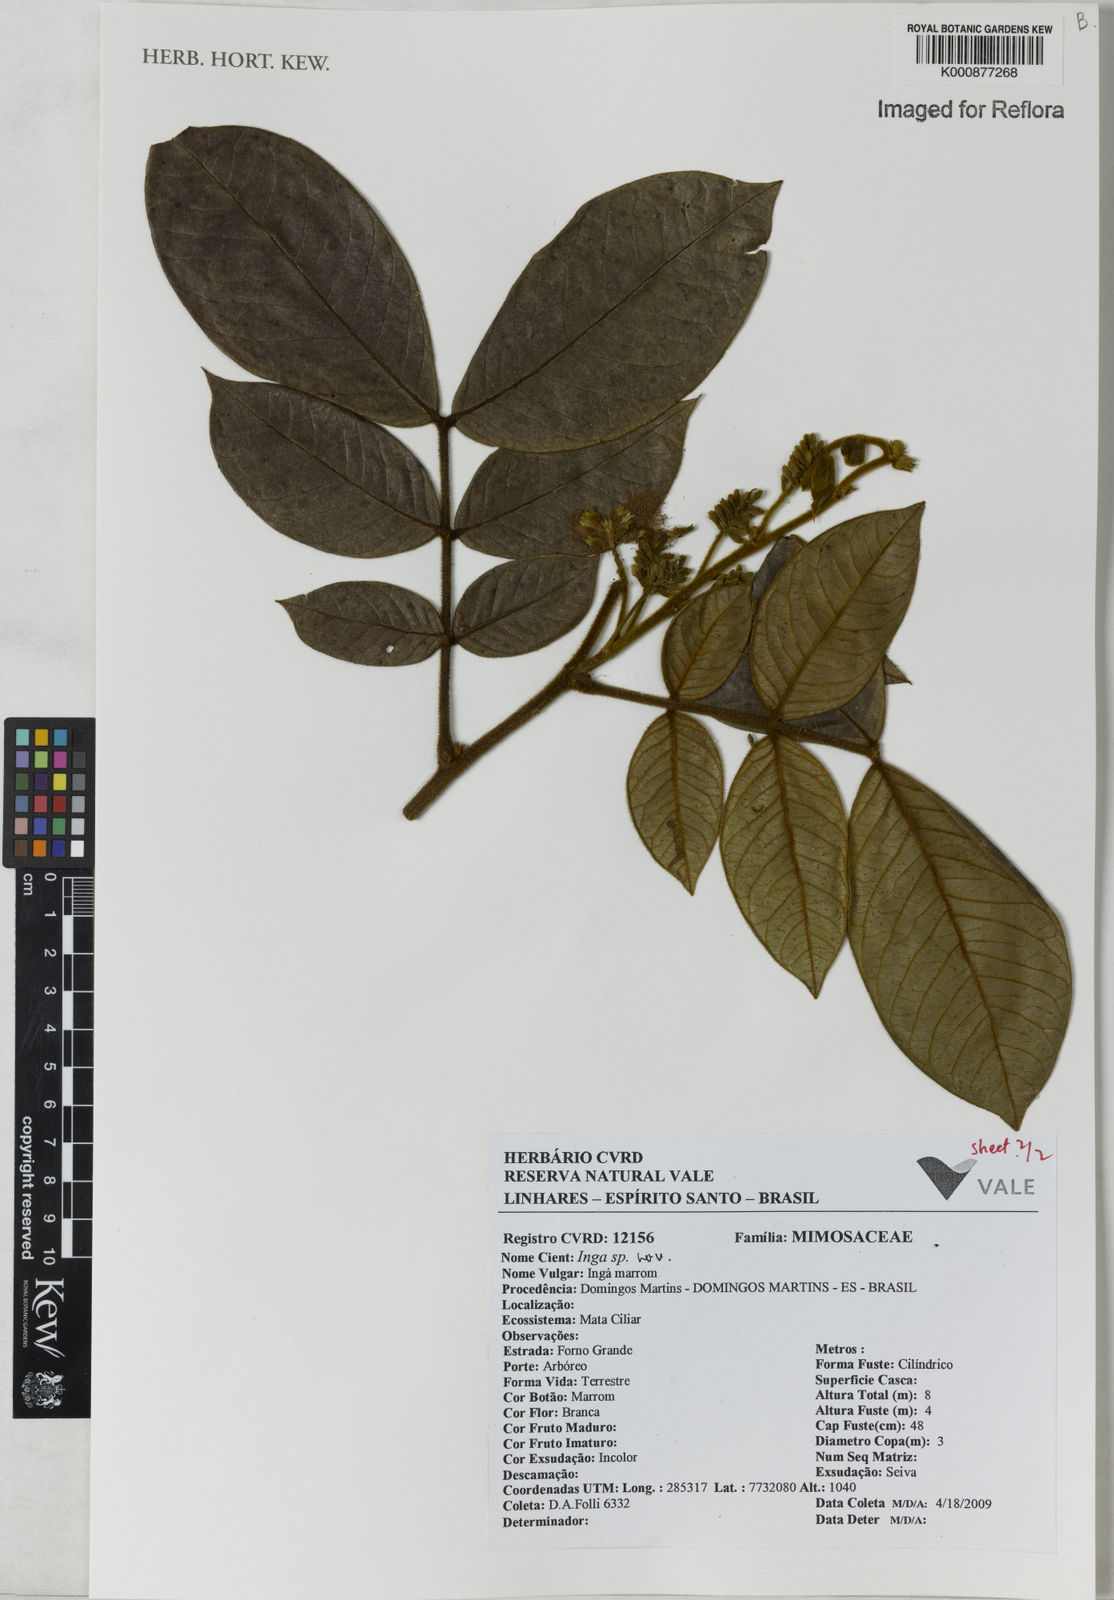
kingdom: Plantae
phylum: Tracheophyta
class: Magnoliopsida
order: Fabales
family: Fabaceae
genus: Inga
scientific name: Inga
